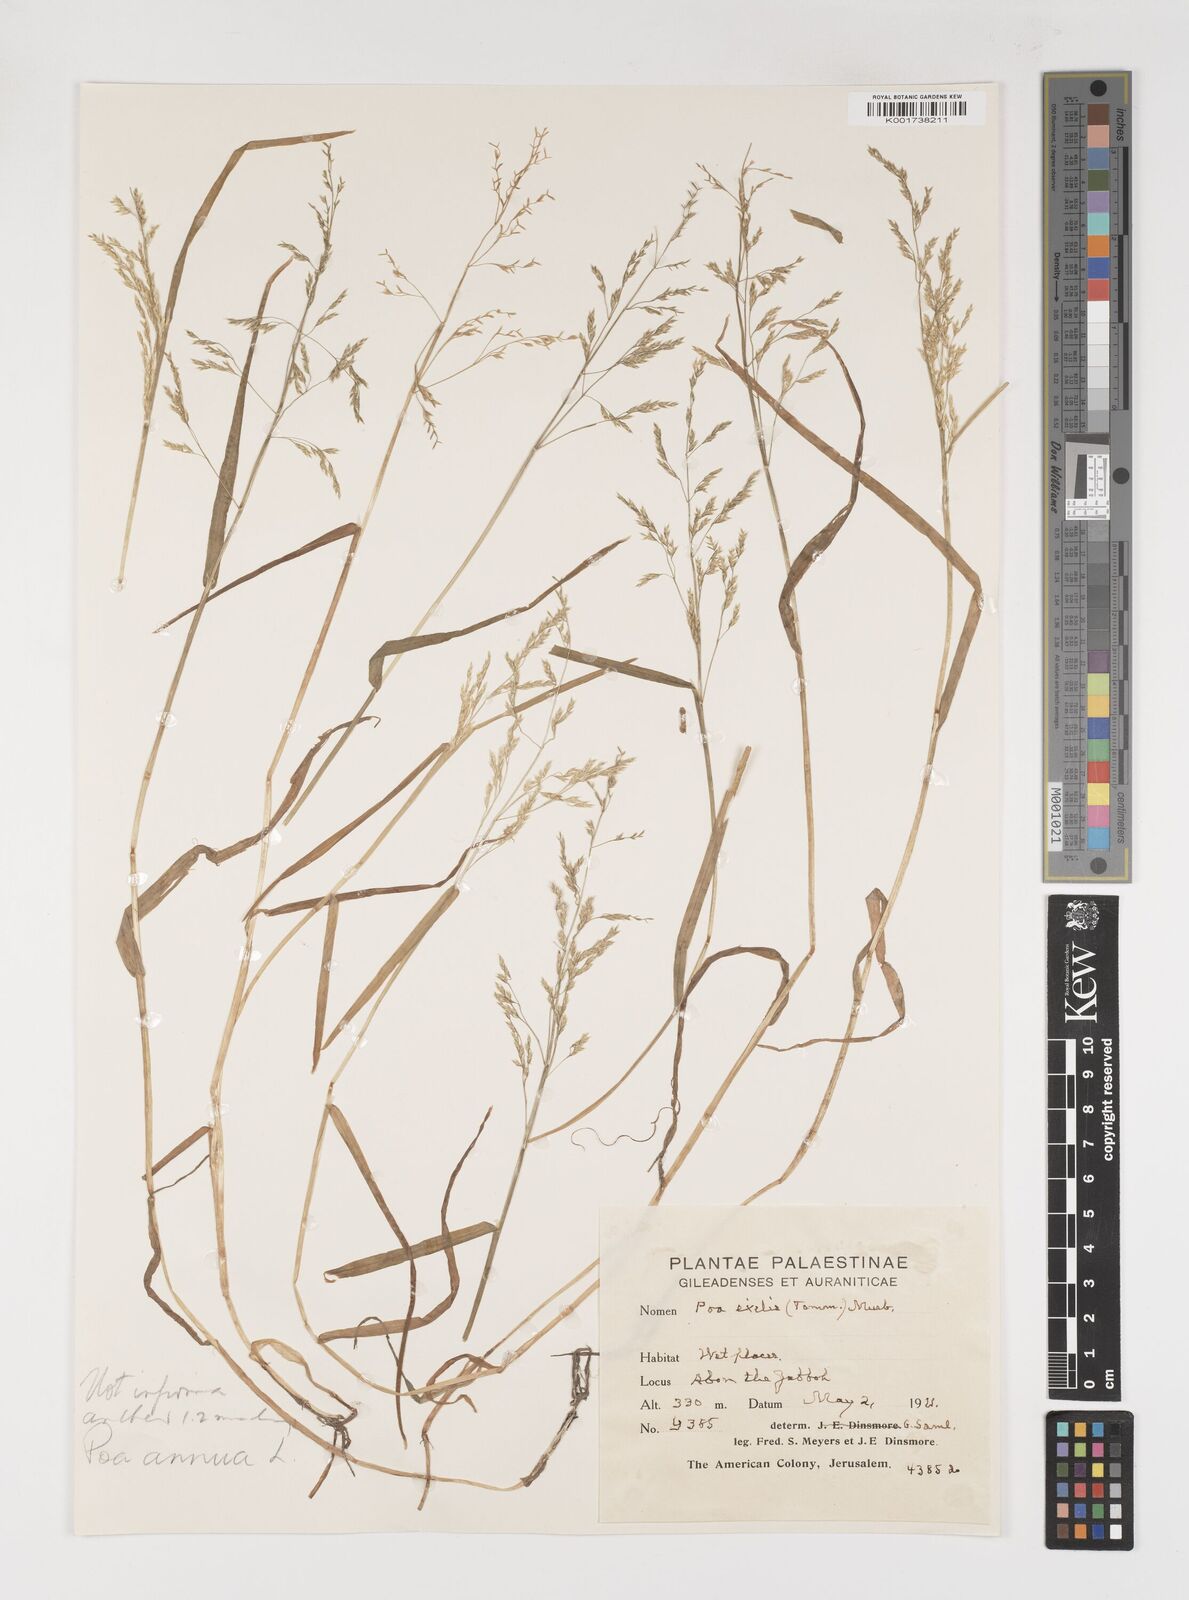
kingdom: Plantae
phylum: Tracheophyta
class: Liliopsida
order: Poales
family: Poaceae
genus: Poa
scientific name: Poa annua
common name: Annual bluegrass
